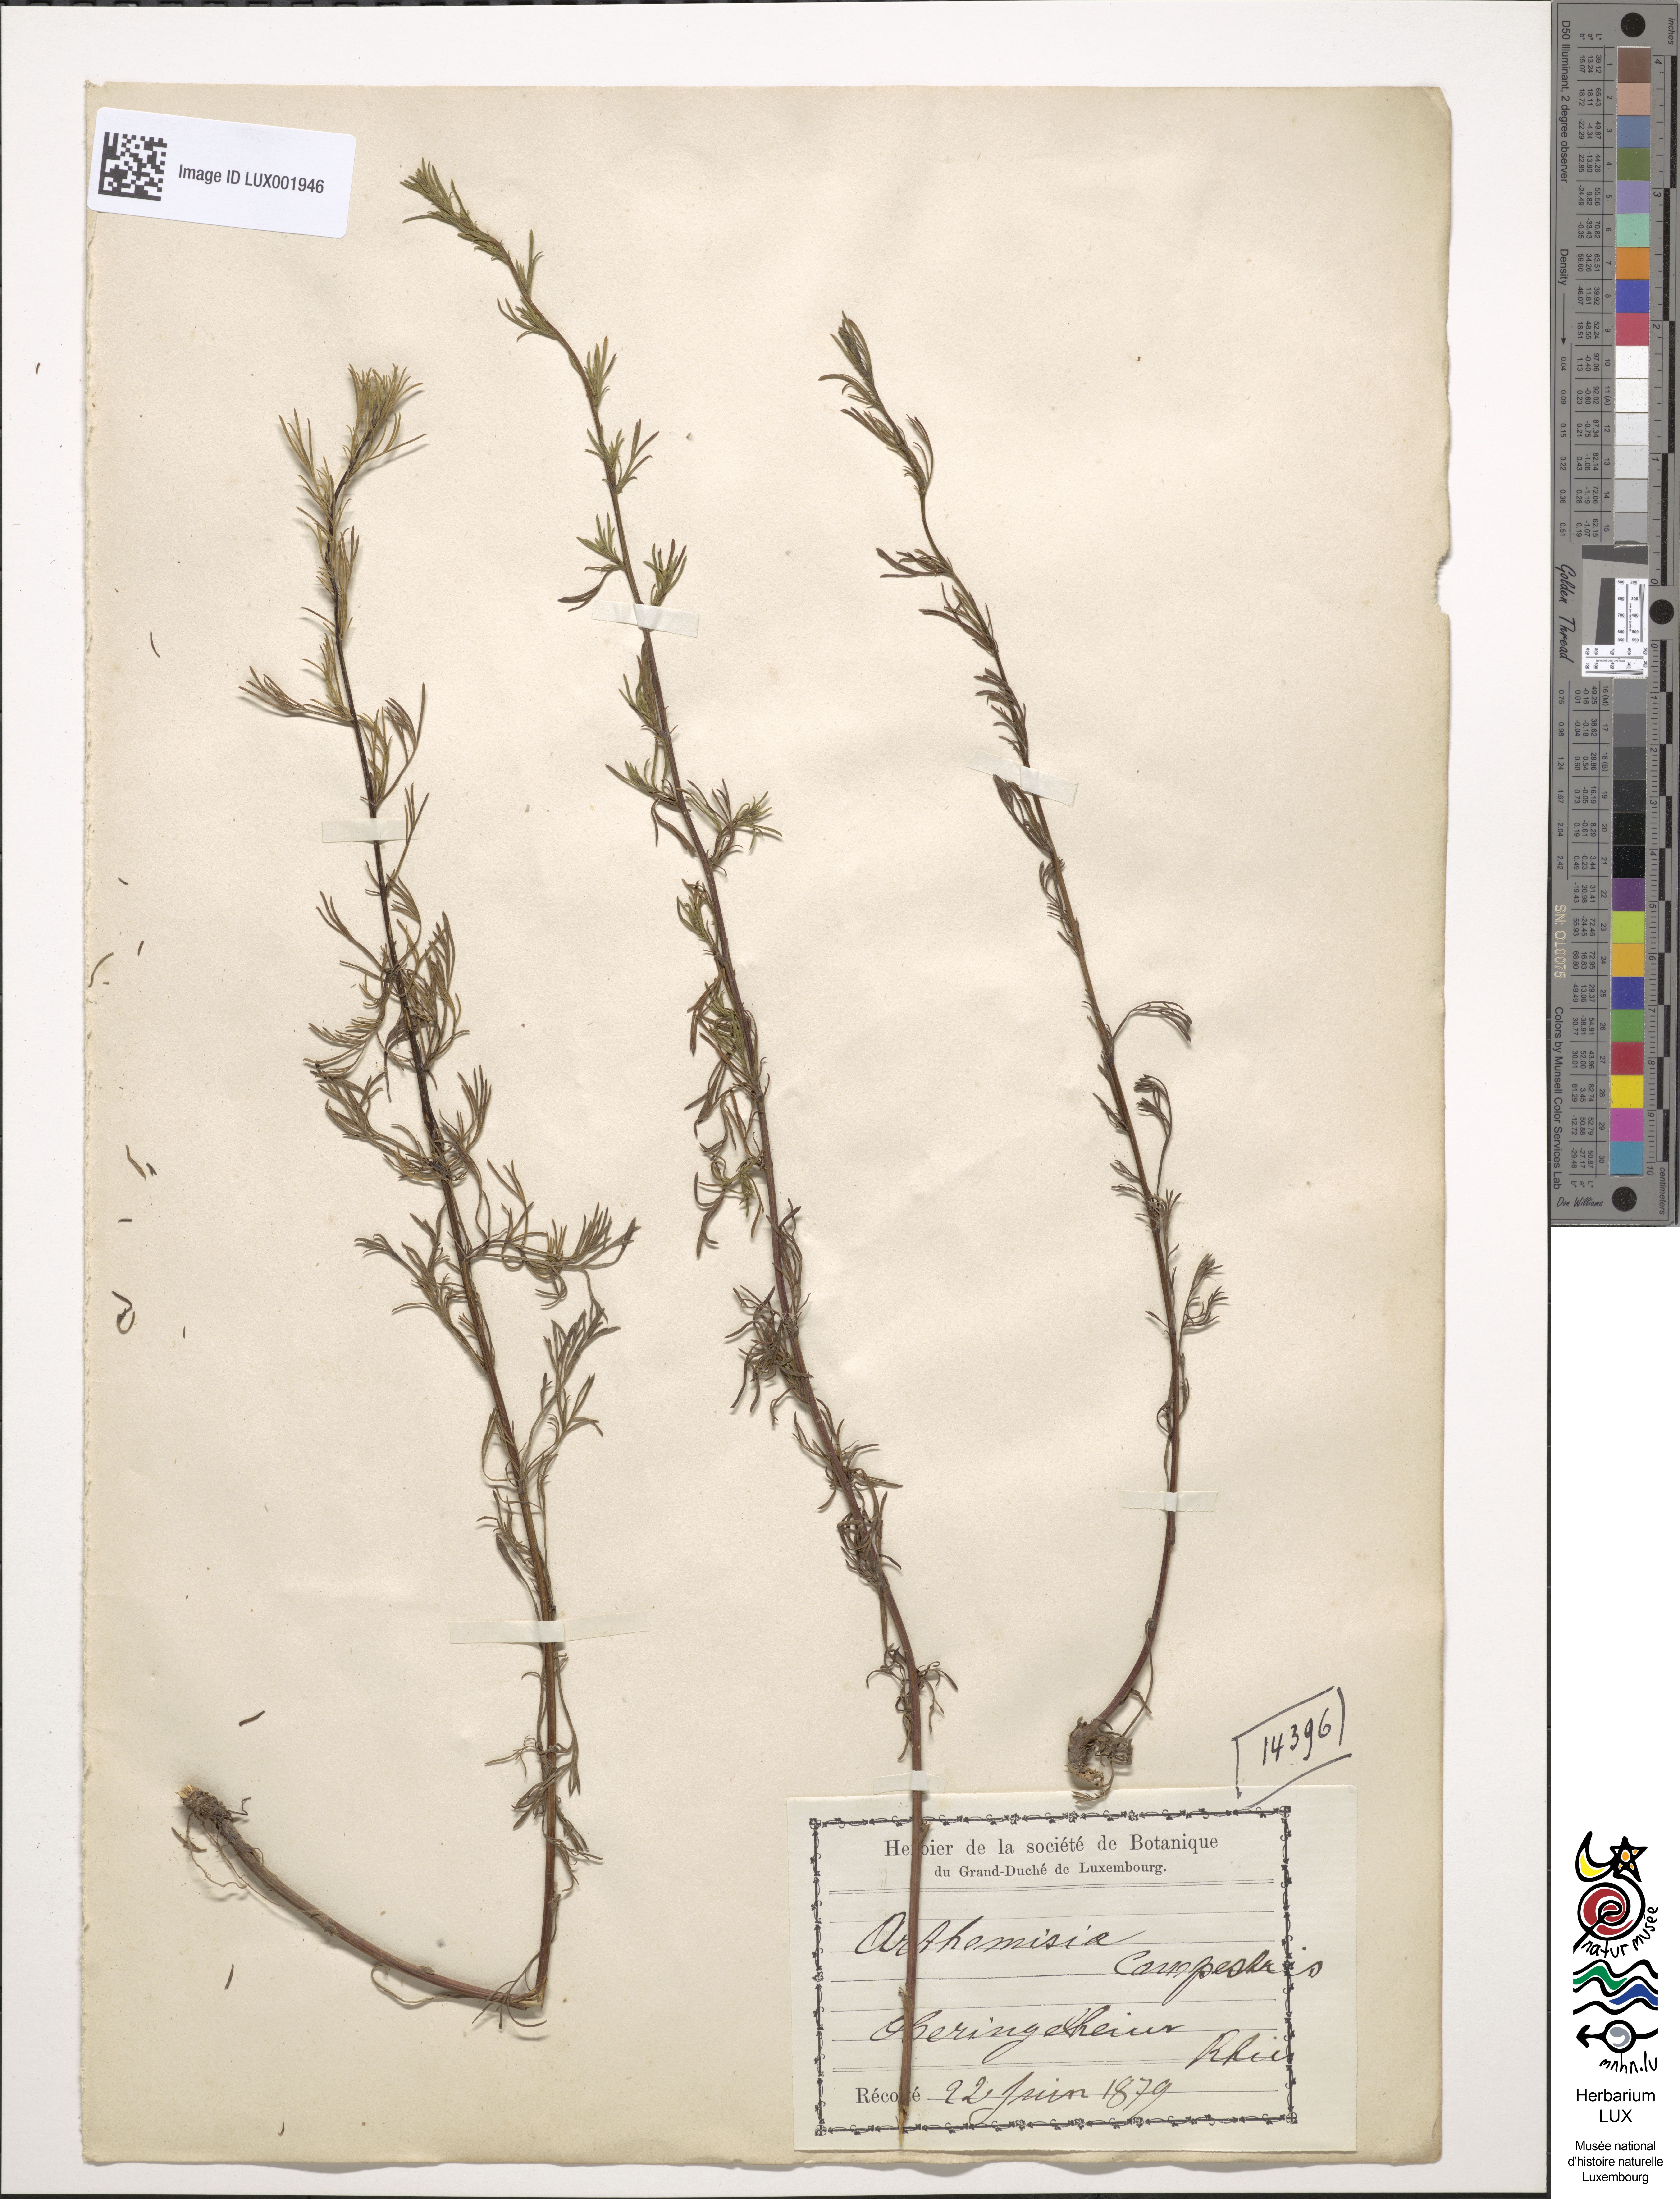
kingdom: Plantae
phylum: Tracheophyta
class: Magnoliopsida
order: Asterales
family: Asteraceae
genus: Artemisia
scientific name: Artemisia campestris
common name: Field wormwood
